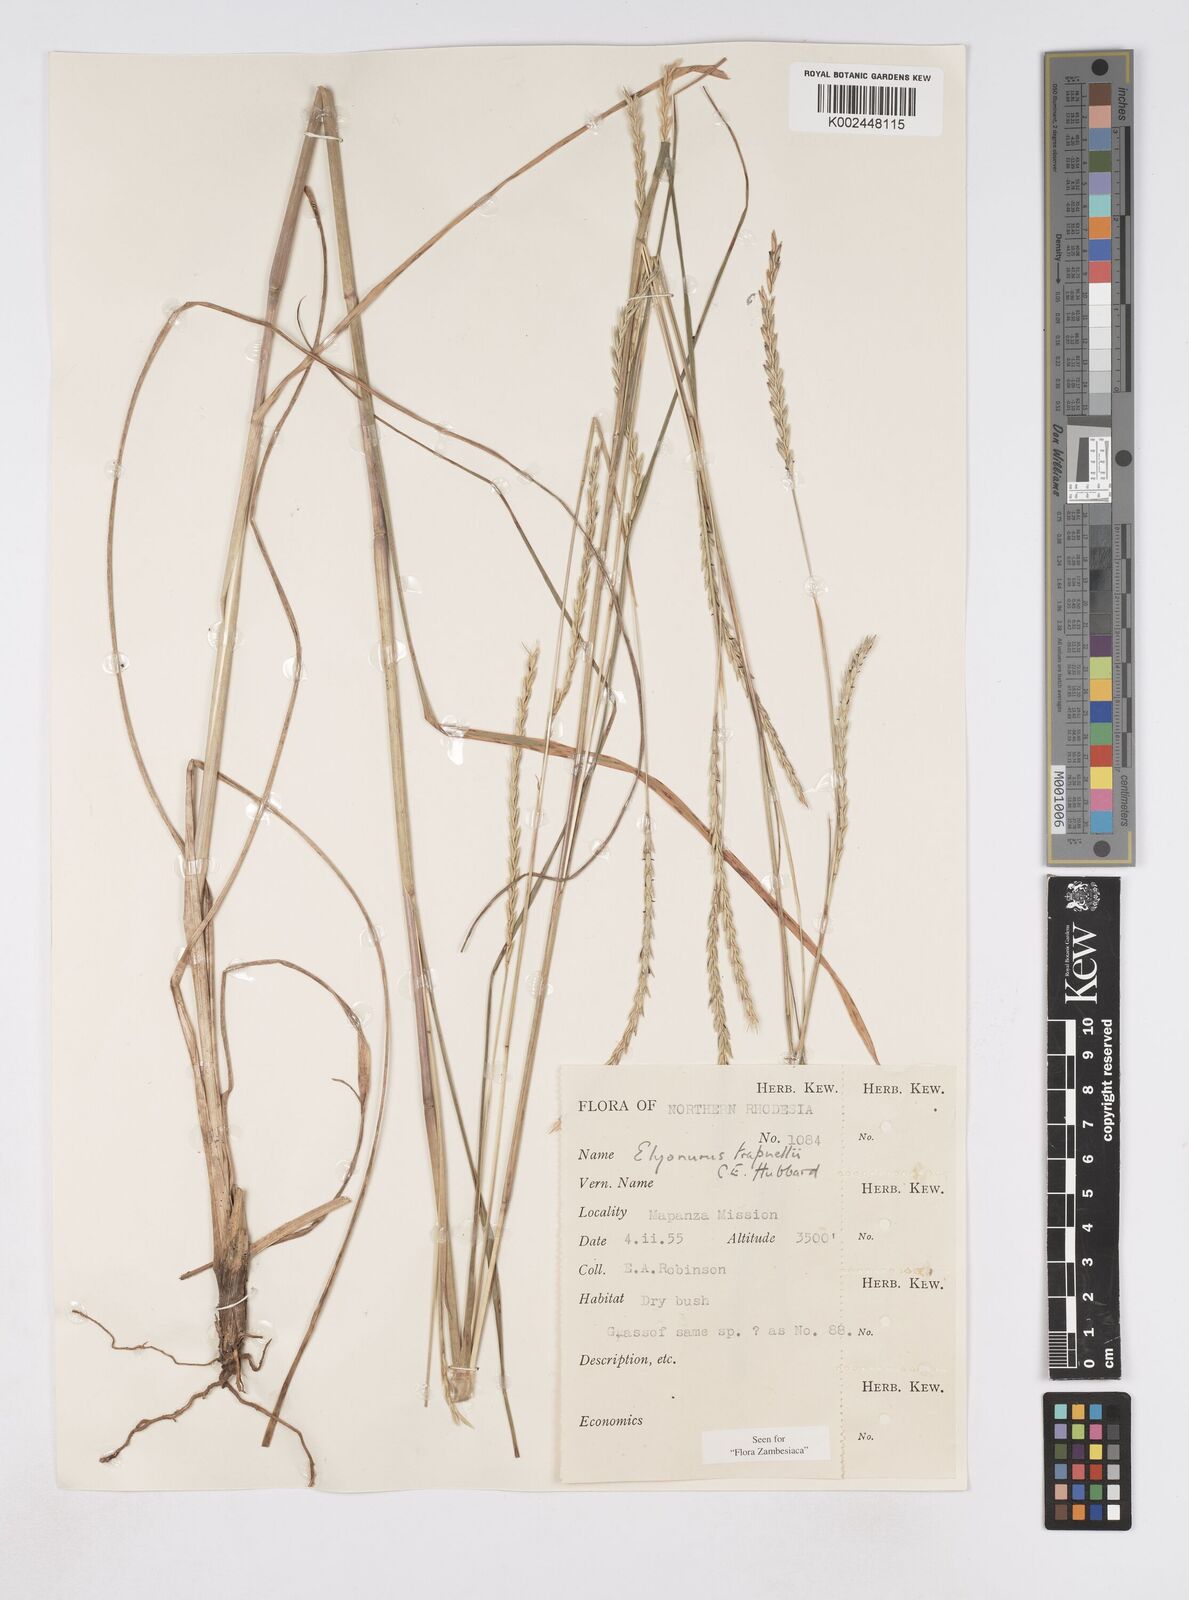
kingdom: Plantae
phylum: Tracheophyta
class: Liliopsida
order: Poales
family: Poaceae
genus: Elionurus
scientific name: Elionurus tripsacoides
